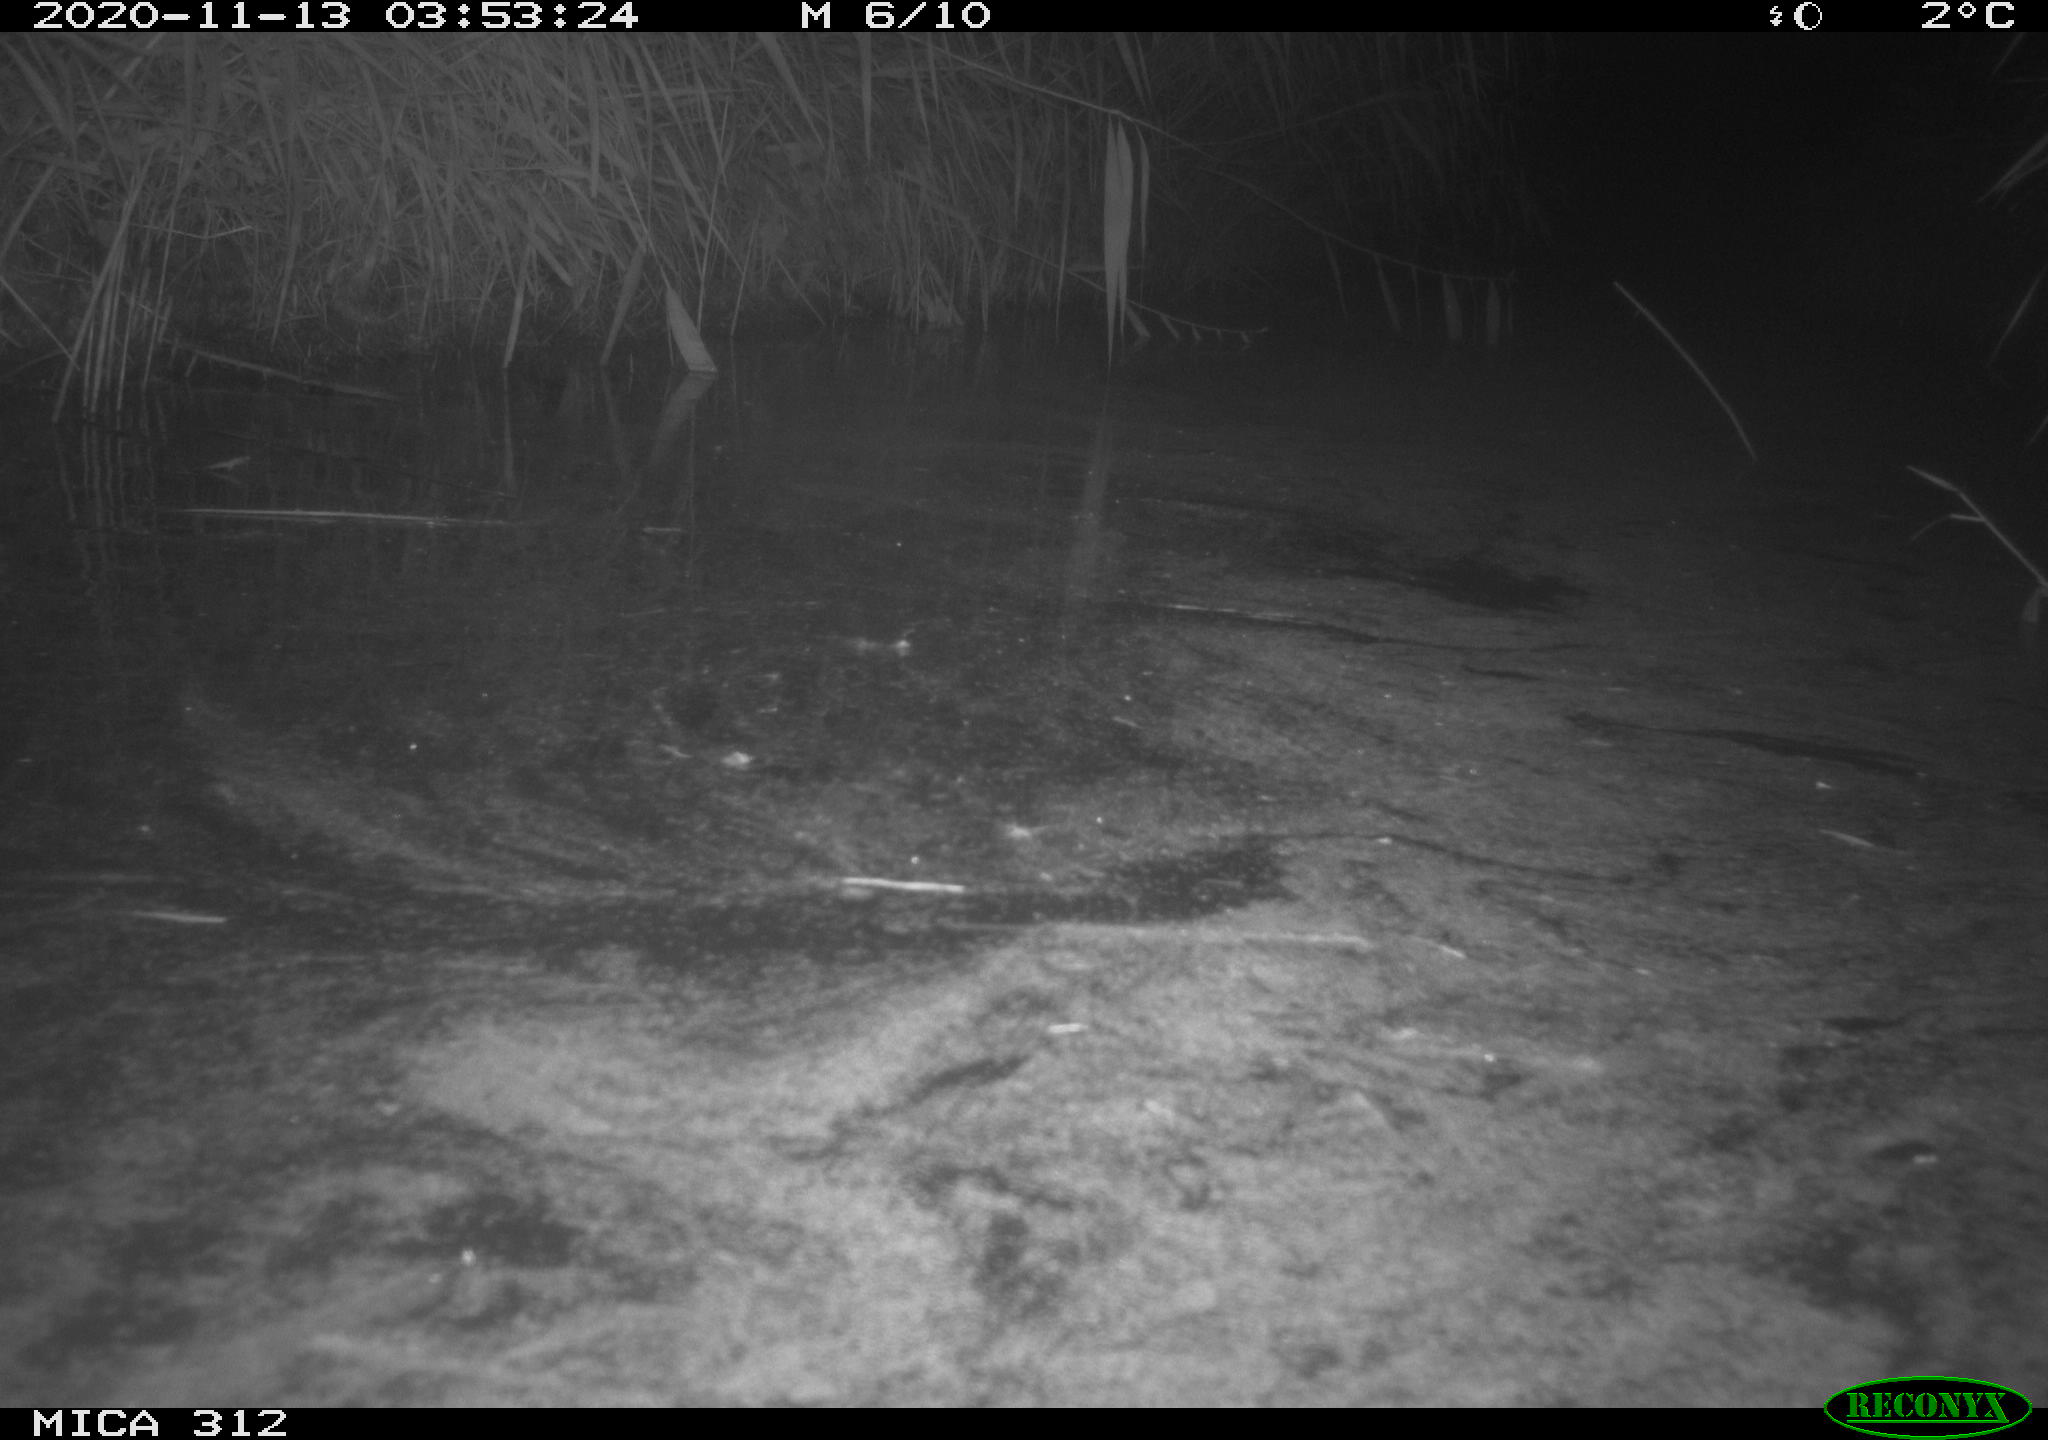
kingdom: Animalia
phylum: Chordata
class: Mammalia
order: Rodentia
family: Muridae
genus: Rattus
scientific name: Rattus norvegicus
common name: Brown rat
